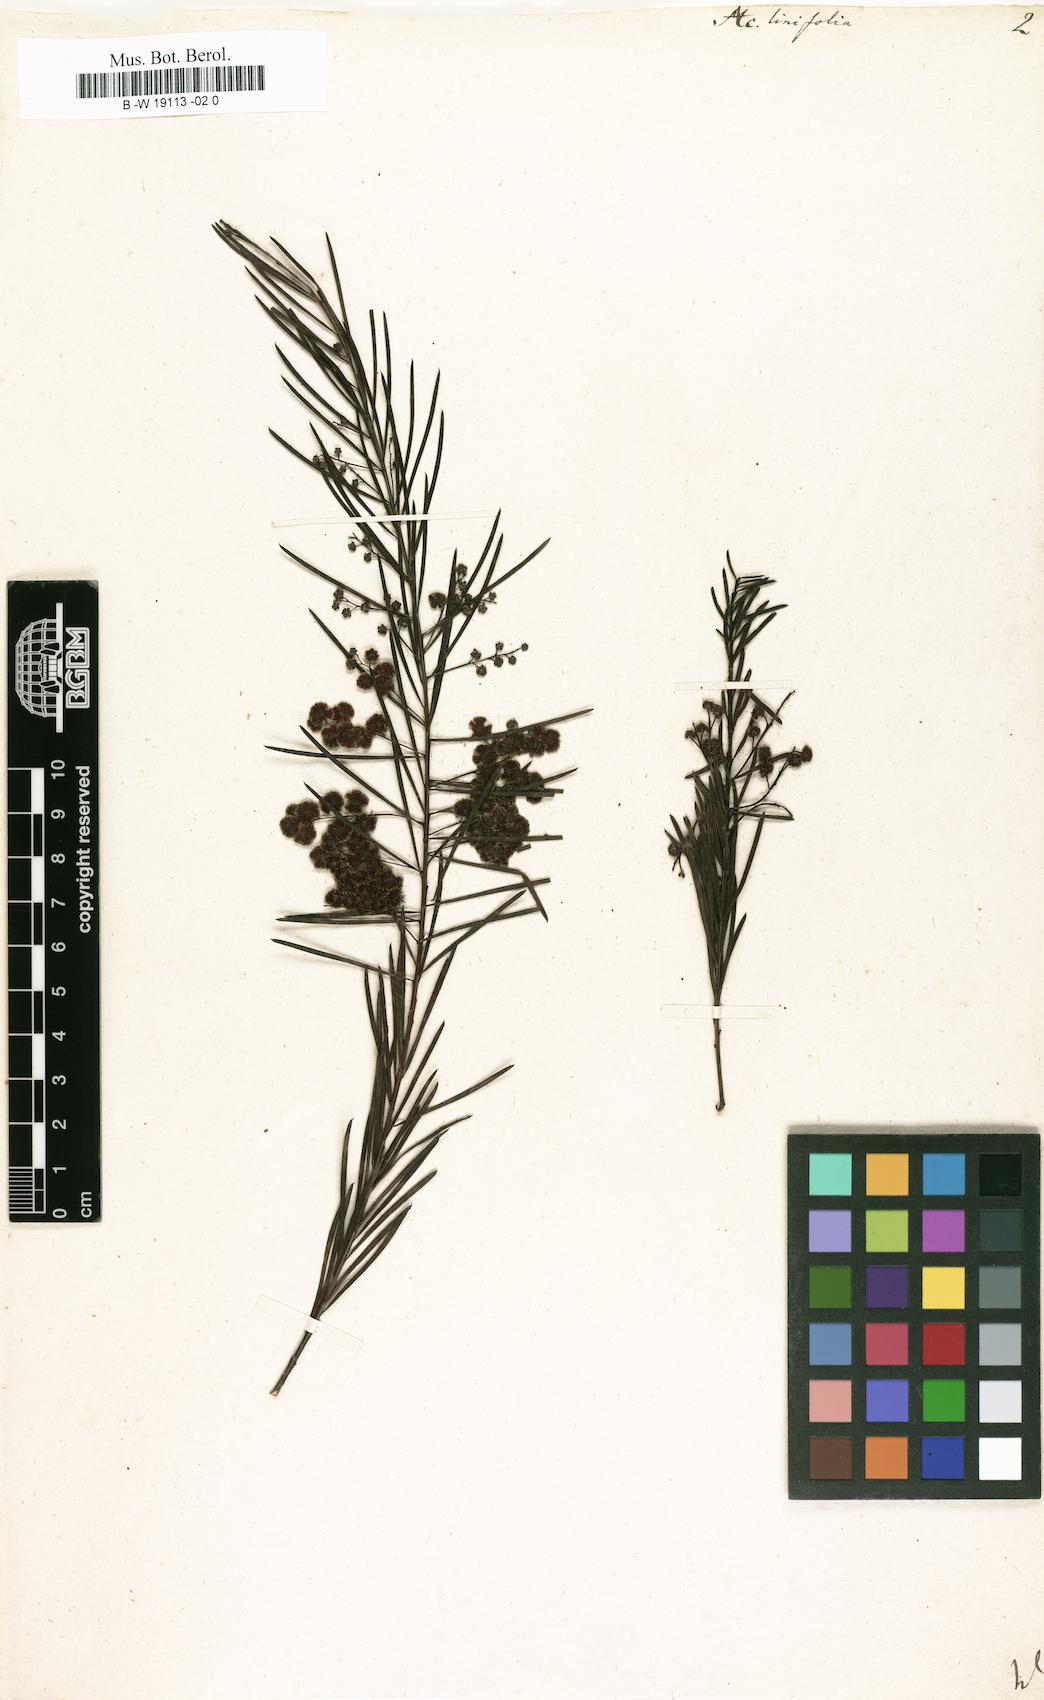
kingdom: Plantae
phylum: Tracheophyta
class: Magnoliopsida
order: Fabales
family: Fabaceae
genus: Acacia
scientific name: Acacia linifolia
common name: White wattle
